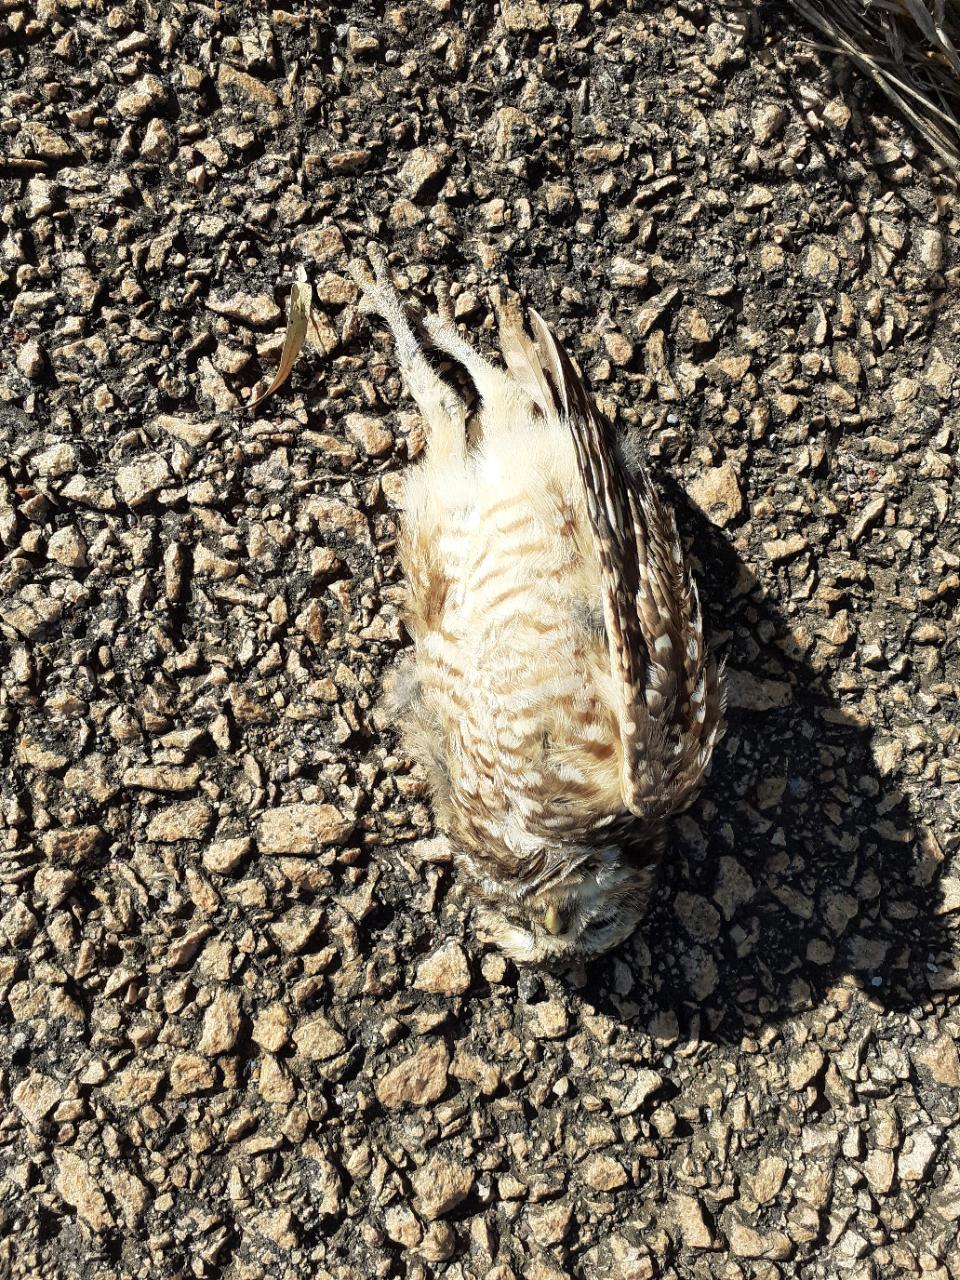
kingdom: Animalia
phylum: Chordata
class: Aves
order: Strigiformes
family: Strigidae
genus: Athene
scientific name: Athene cunicularia
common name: Burrowing owl
